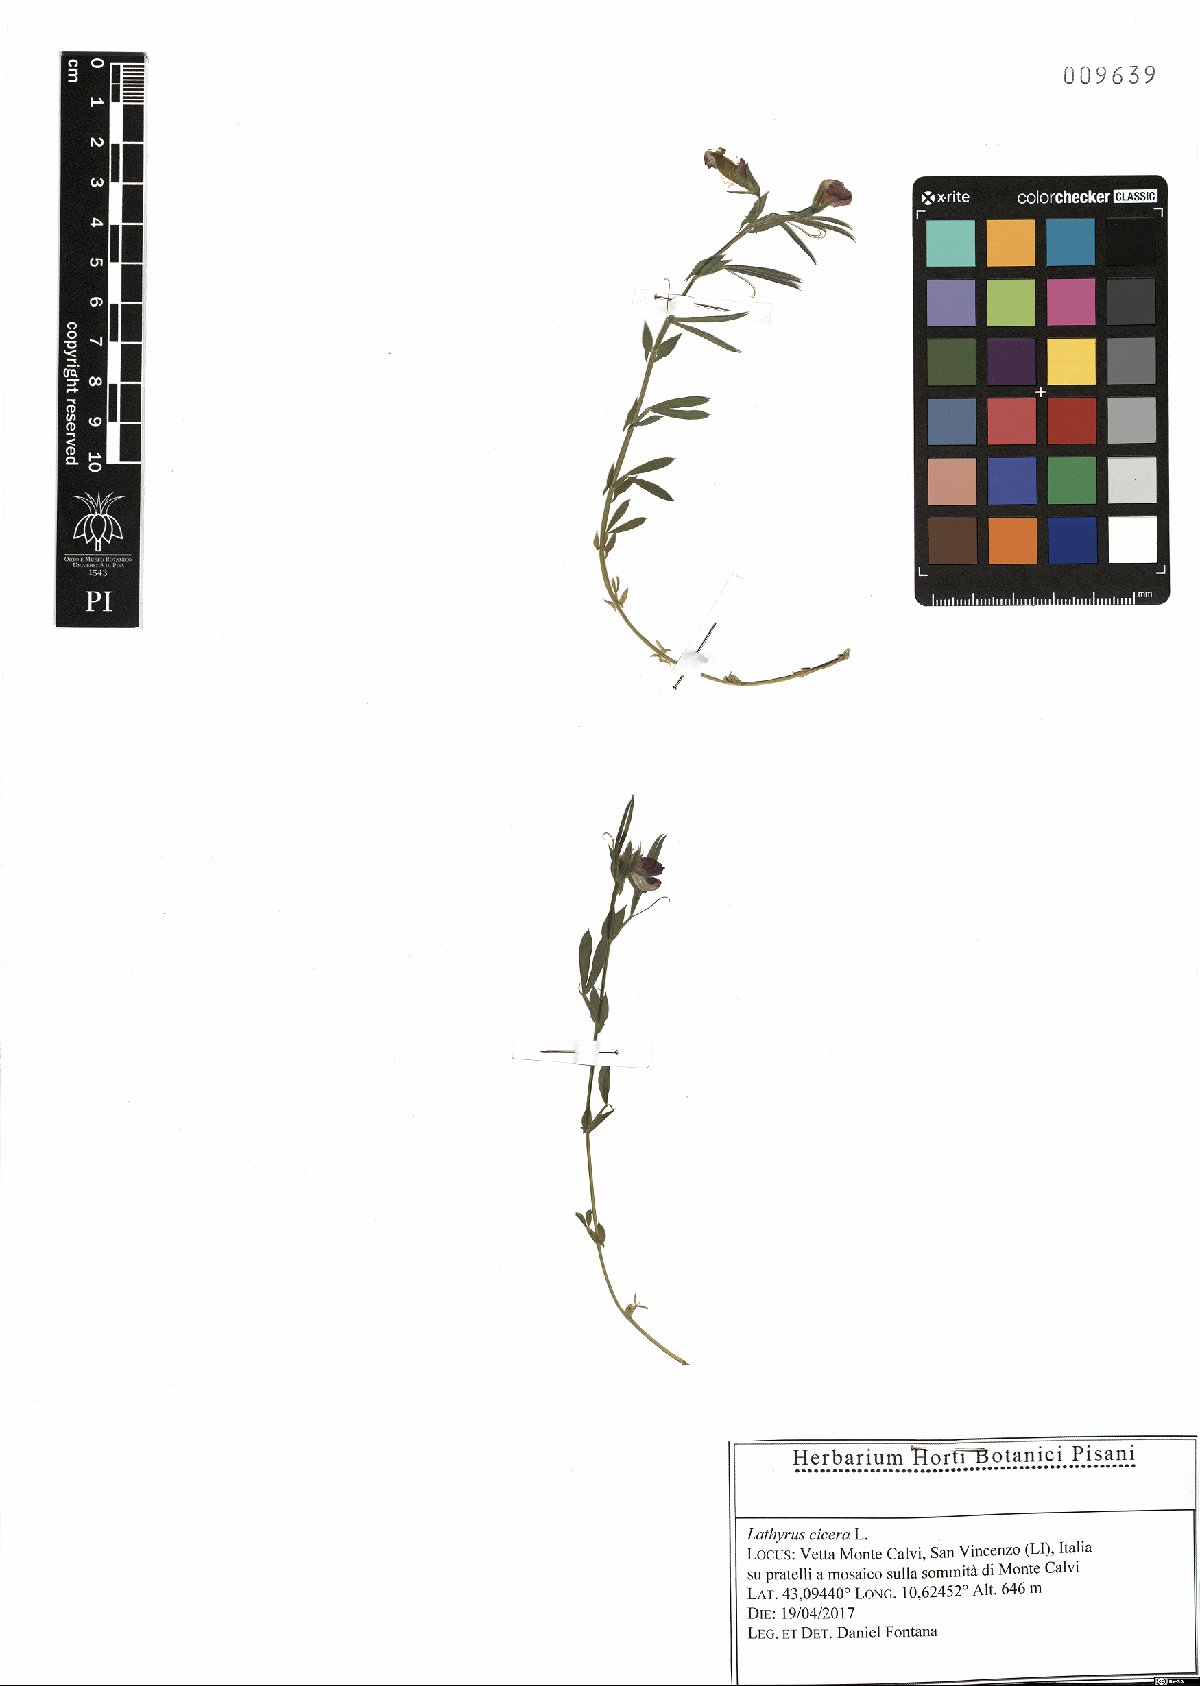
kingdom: Plantae
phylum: Tracheophyta
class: Magnoliopsida
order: Fabales
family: Fabaceae
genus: Lathyrus
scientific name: Lathyrus cicera
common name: Red vetchling
